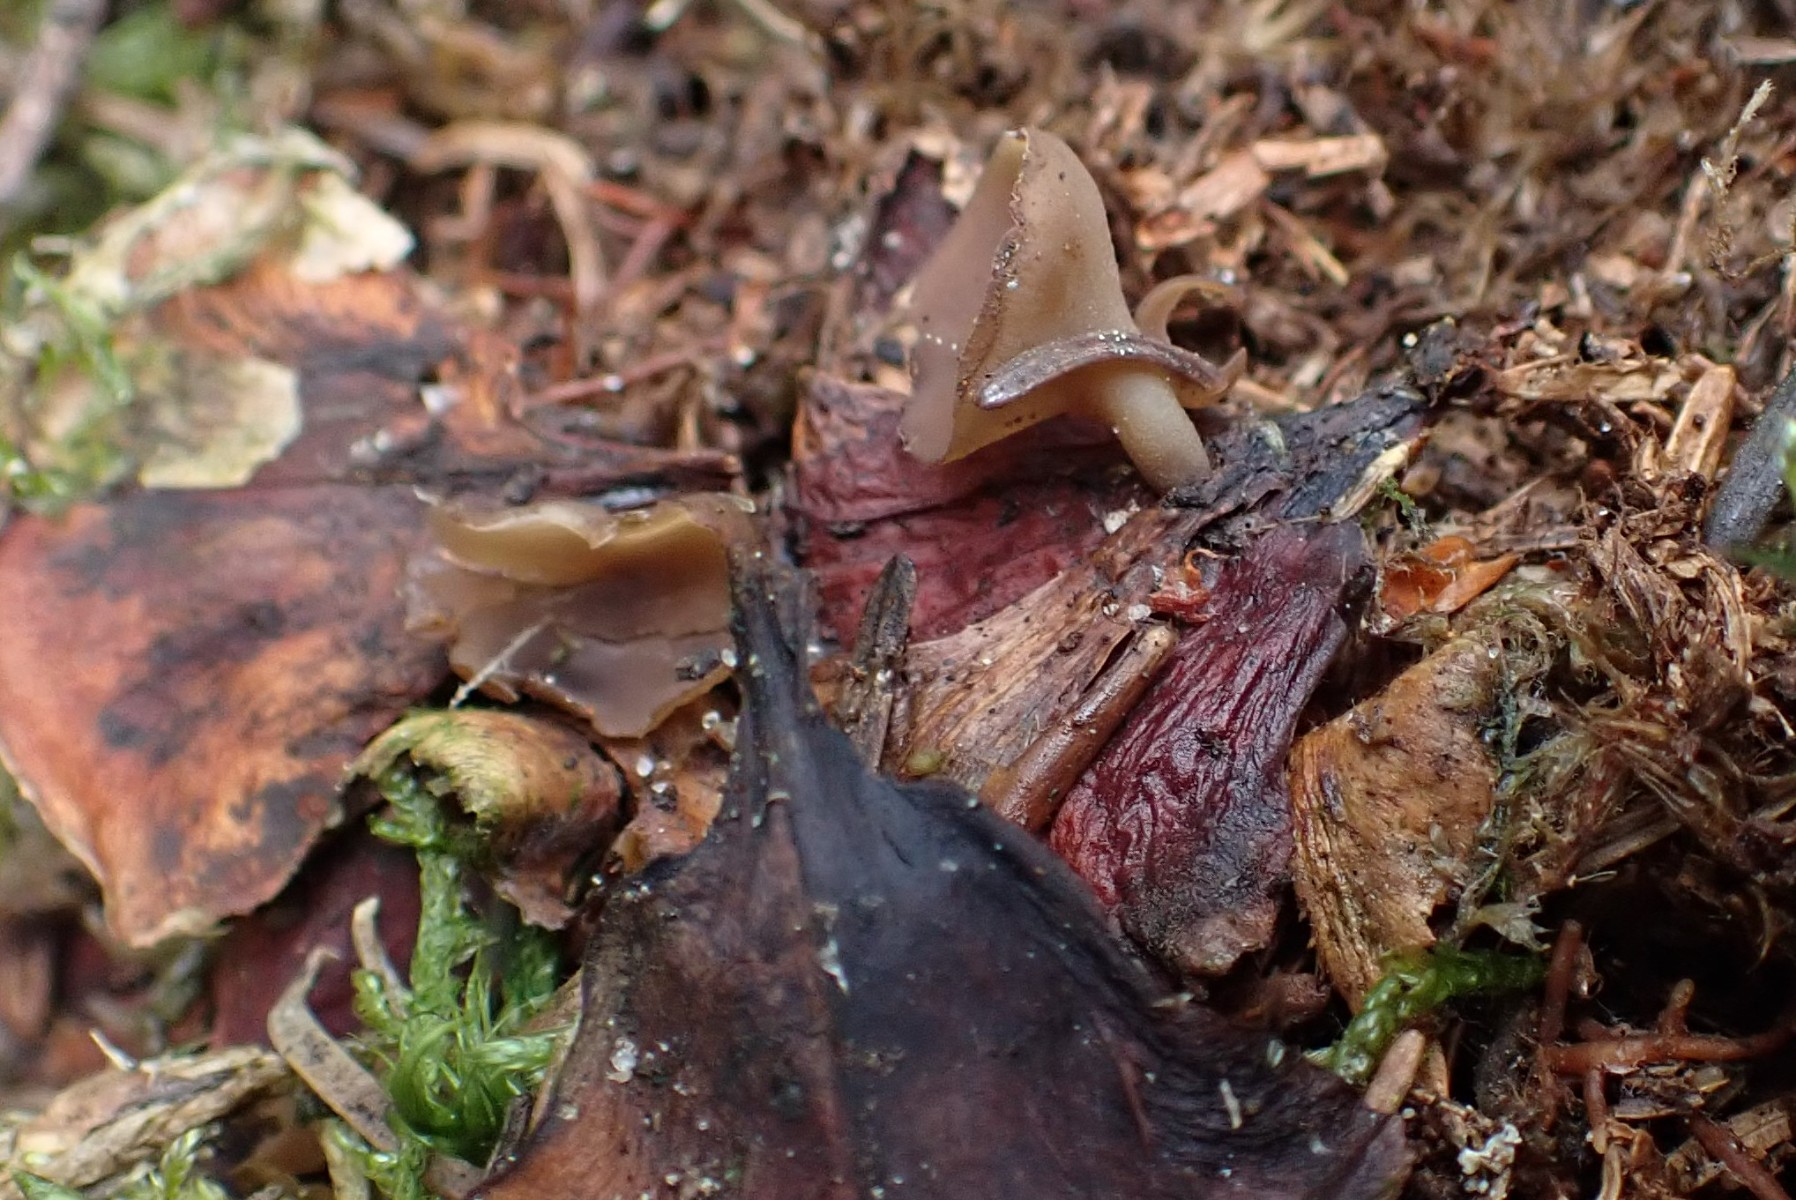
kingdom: Fungi
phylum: Ascomycota
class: Leotiomycetes
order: Helotiales
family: Sclerotiniaceae
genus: Ciboria
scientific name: Ciboria rufofusca
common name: kogleskæl-knoldskive
